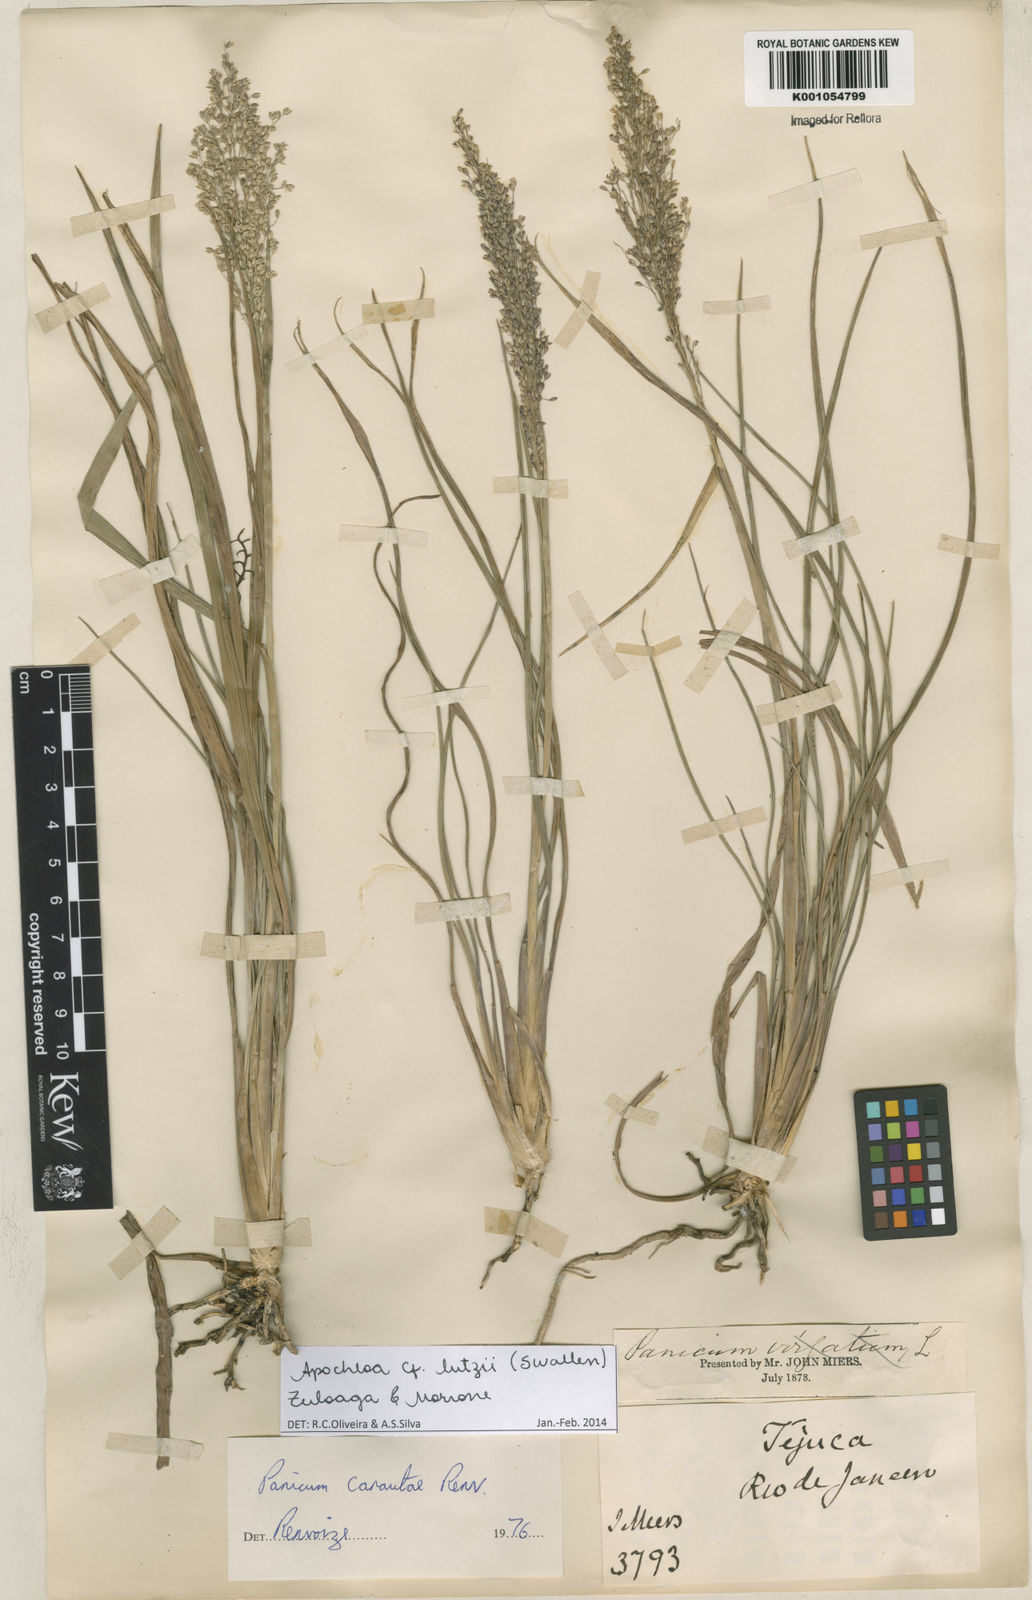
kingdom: Plantae
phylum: Tracheophyta
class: Liliopsida
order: Poales
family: Poaceae
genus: Apochloa
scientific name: Apochloa lutzii
